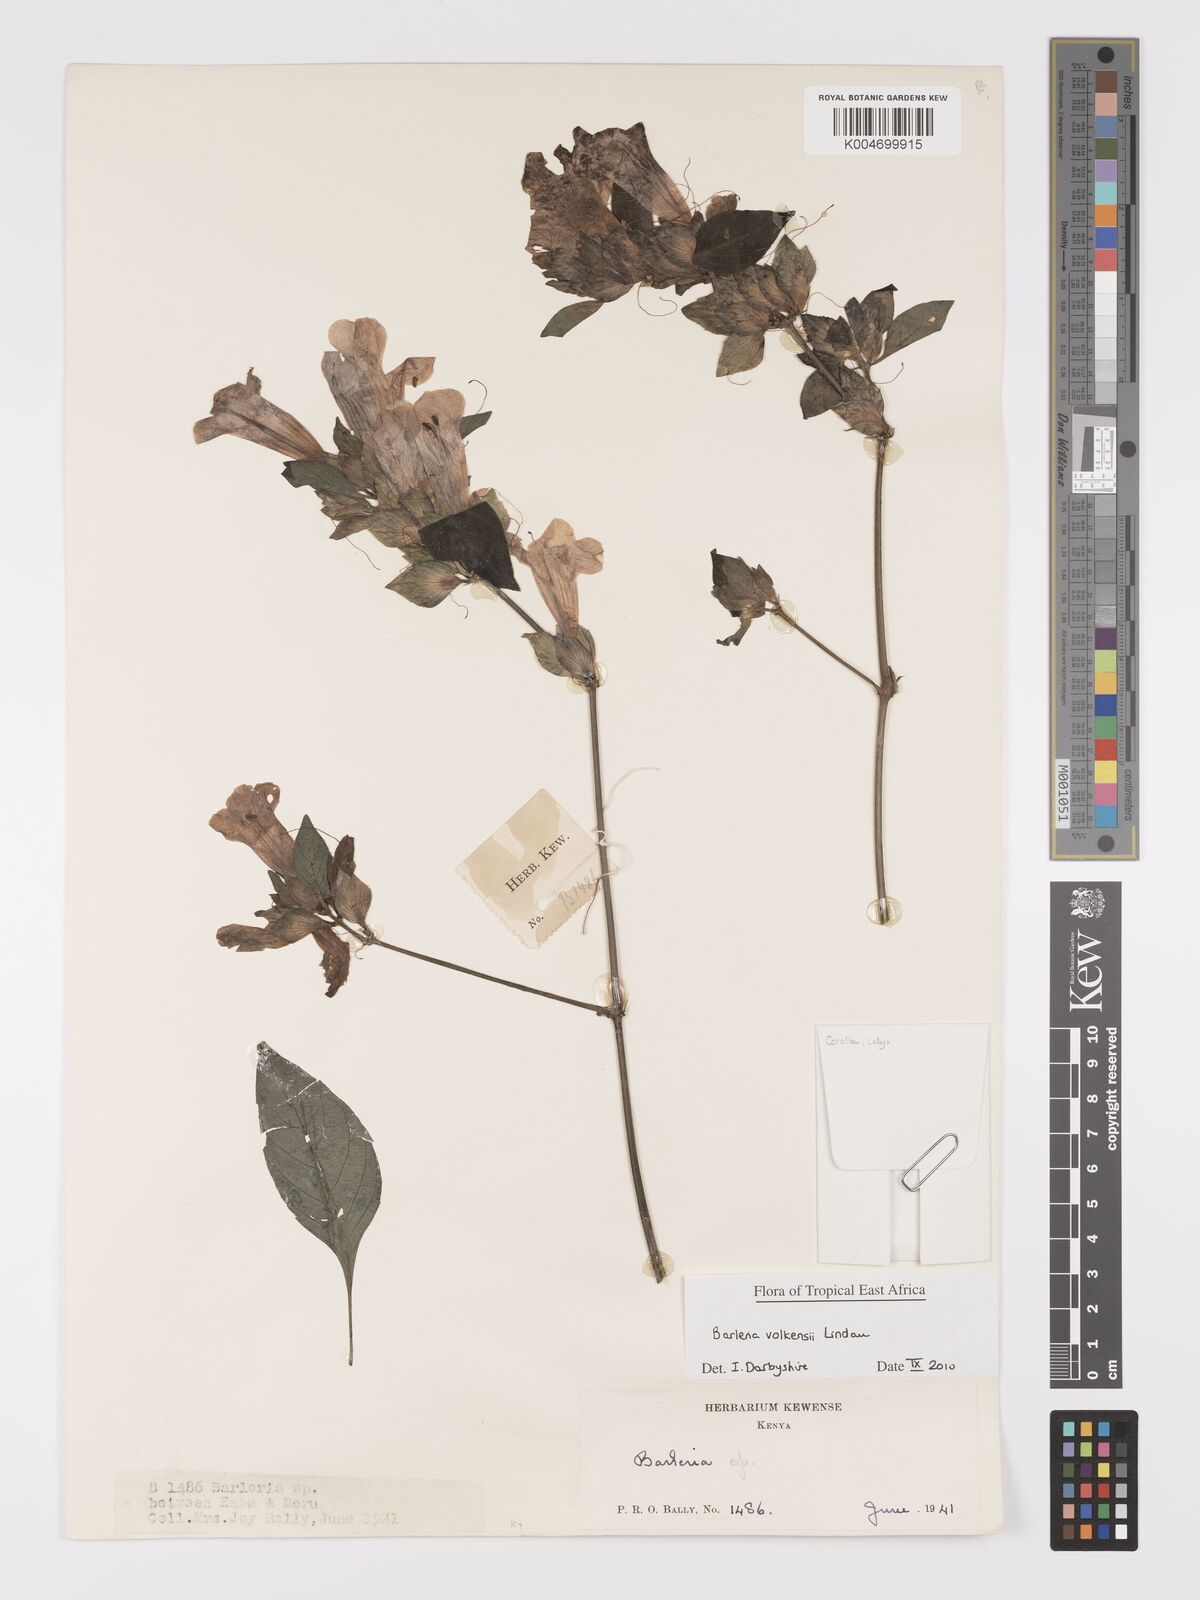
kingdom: Plantae
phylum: Tracheophyta
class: Magnoliopsida
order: Lamiales
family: Acanthaceae
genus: Barleria
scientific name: Barleria volkensii
